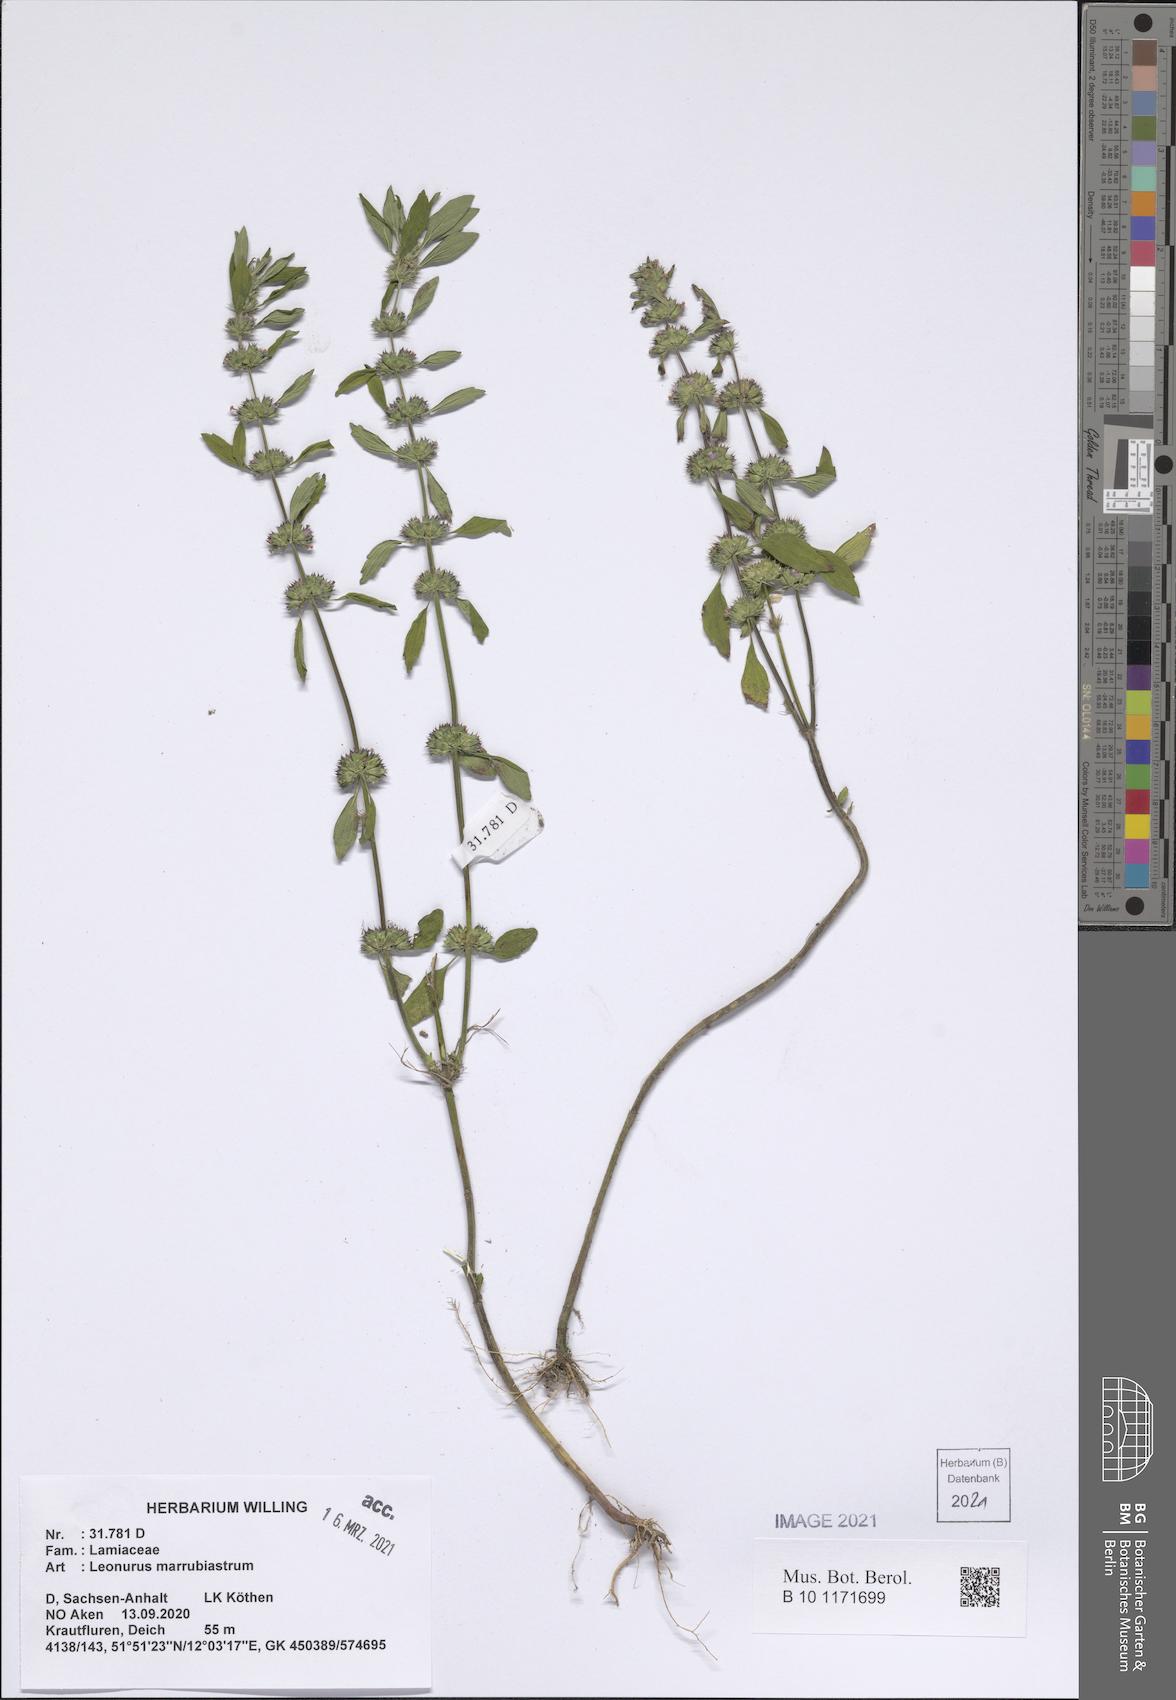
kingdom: Plantae
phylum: Tracheophyta
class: Magnoliopsida
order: Lamiales
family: Lamiaceae
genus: Chaiturus
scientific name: Chaiturus marrubiastrum
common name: Lion's tail
